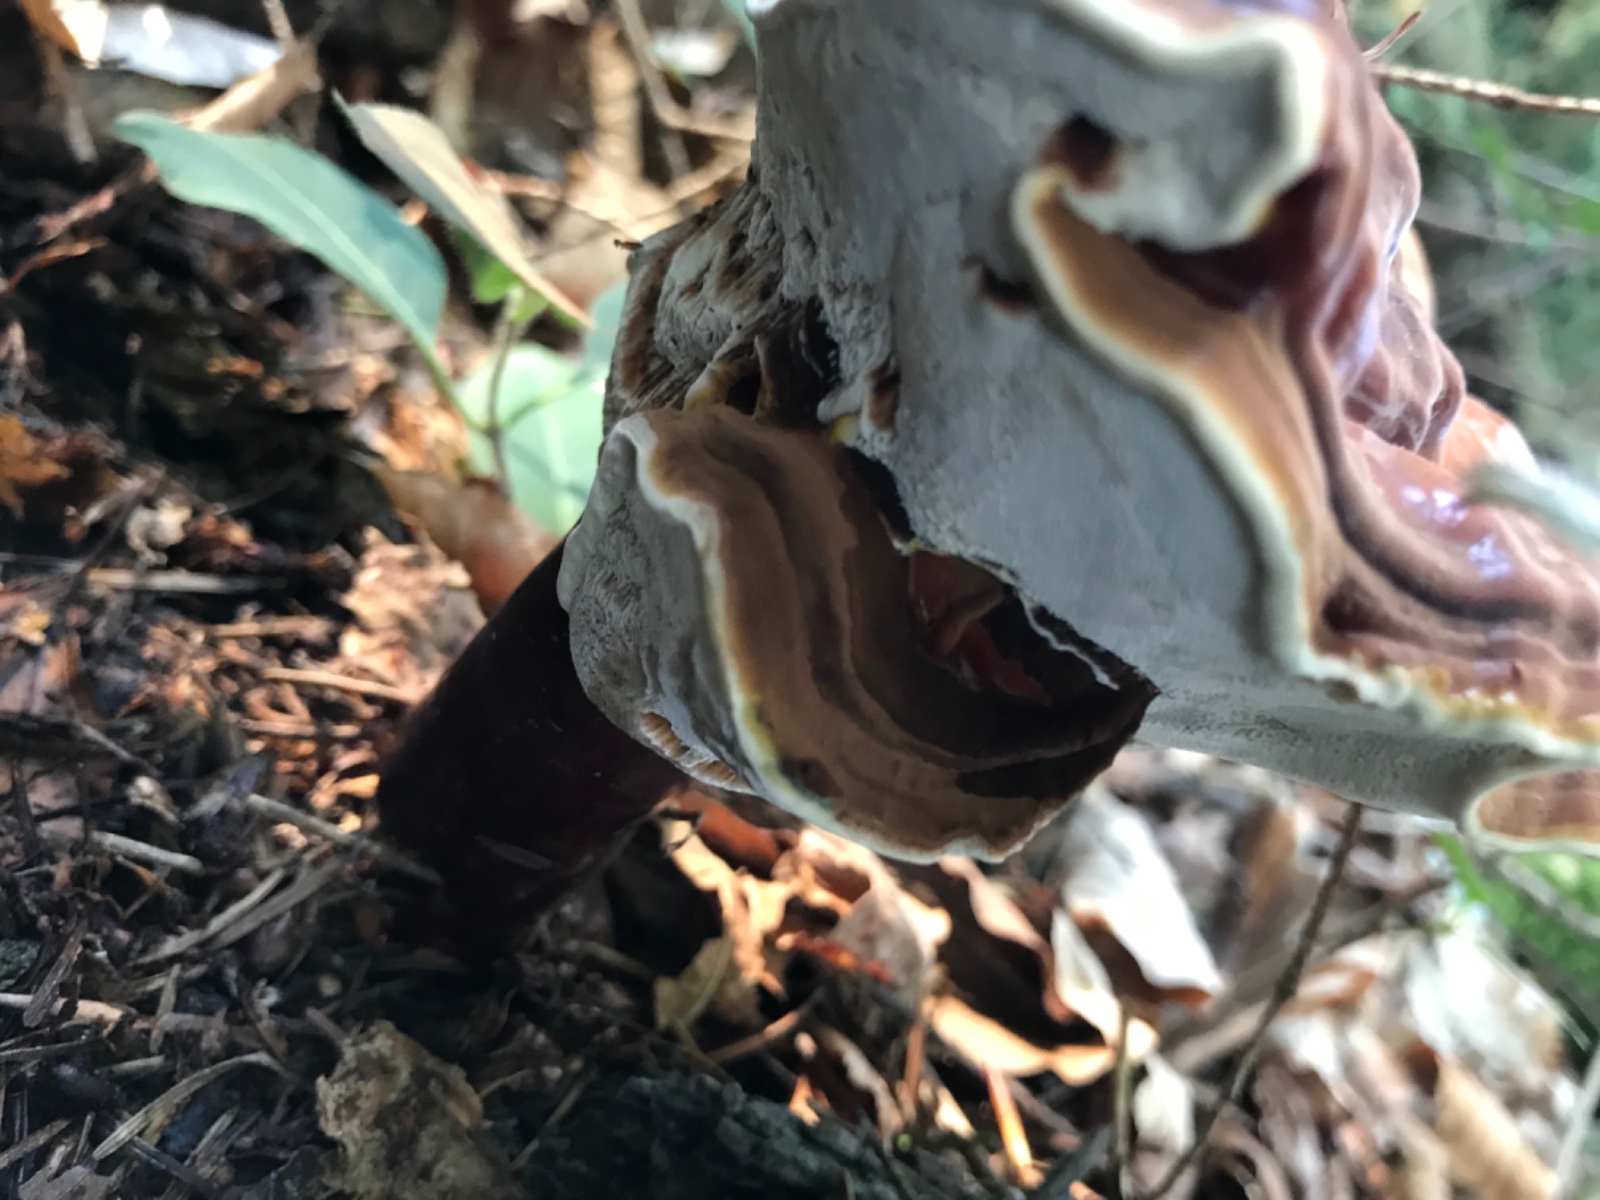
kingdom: Fungi
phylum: Basidiomycota
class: Agaricomycetes
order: Polyporales
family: Polyporaceae
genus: Ganoderma
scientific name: Ganoderma lucidum
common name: skinnende lakporesvamp
